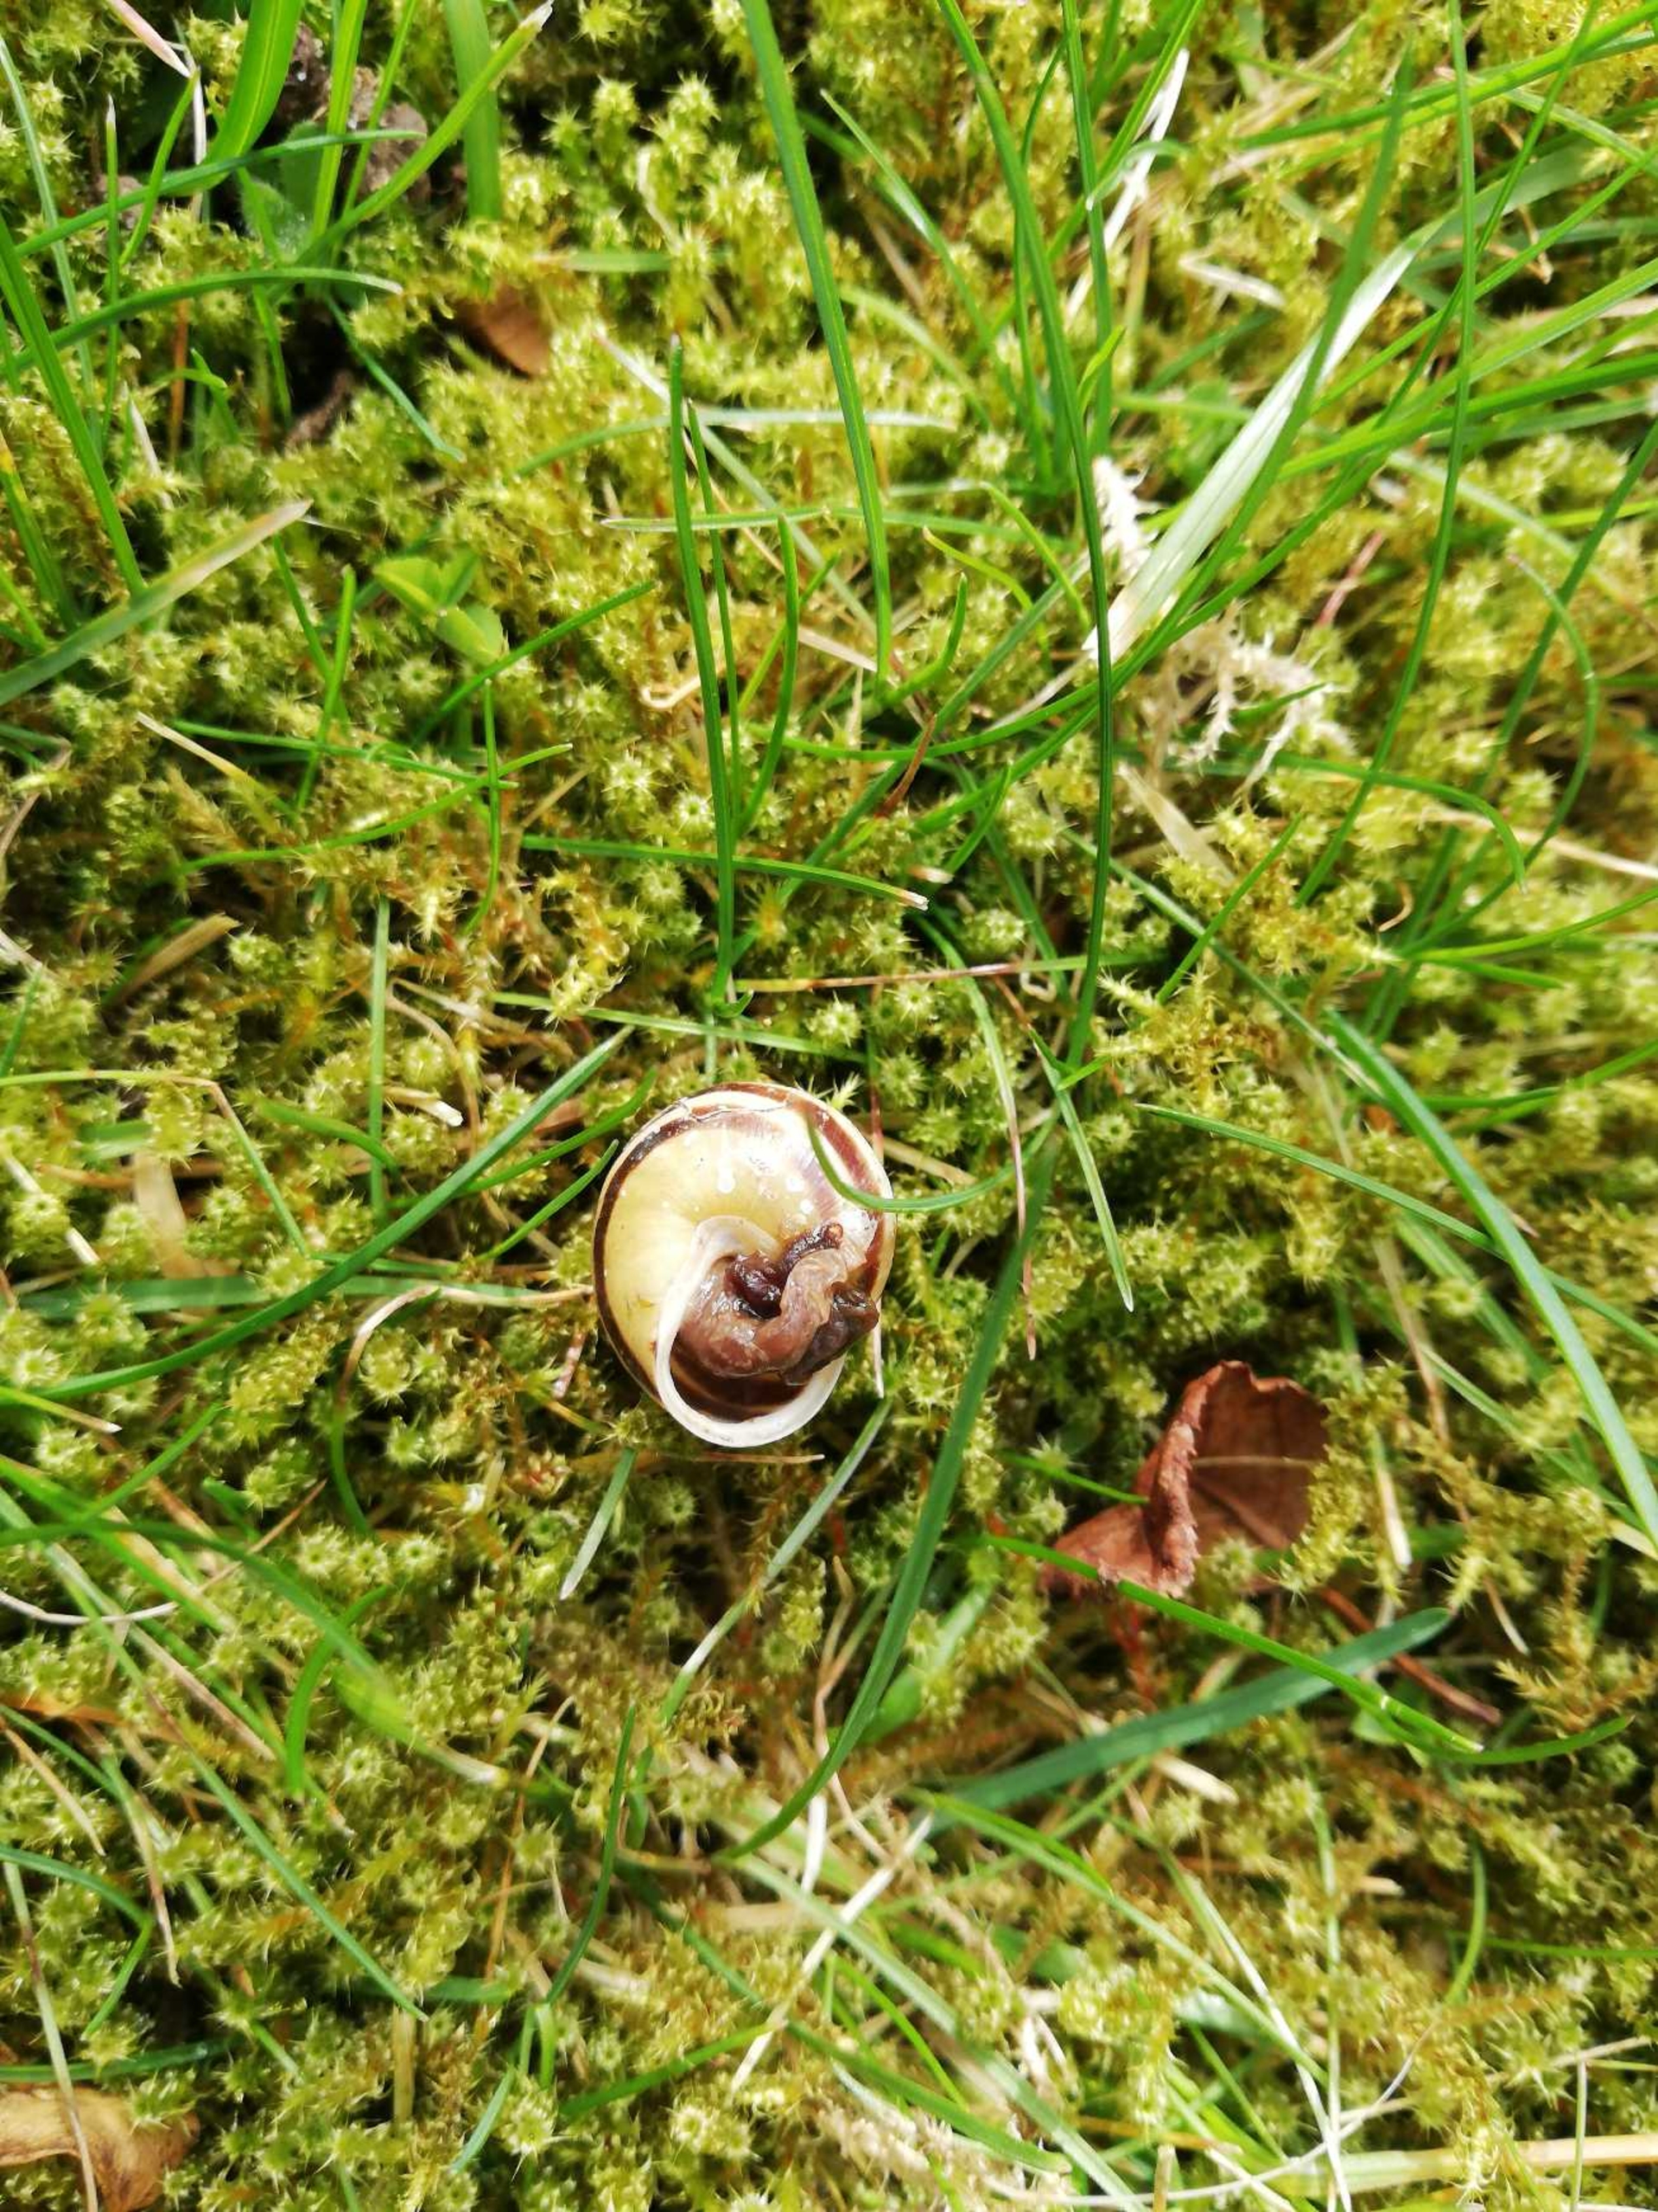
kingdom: Animalia
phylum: Mollusca
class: Gastropoda
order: Stylommatophora
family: Helicidae
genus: Cepaea
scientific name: Cepaea hortensis
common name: Havesnegl
